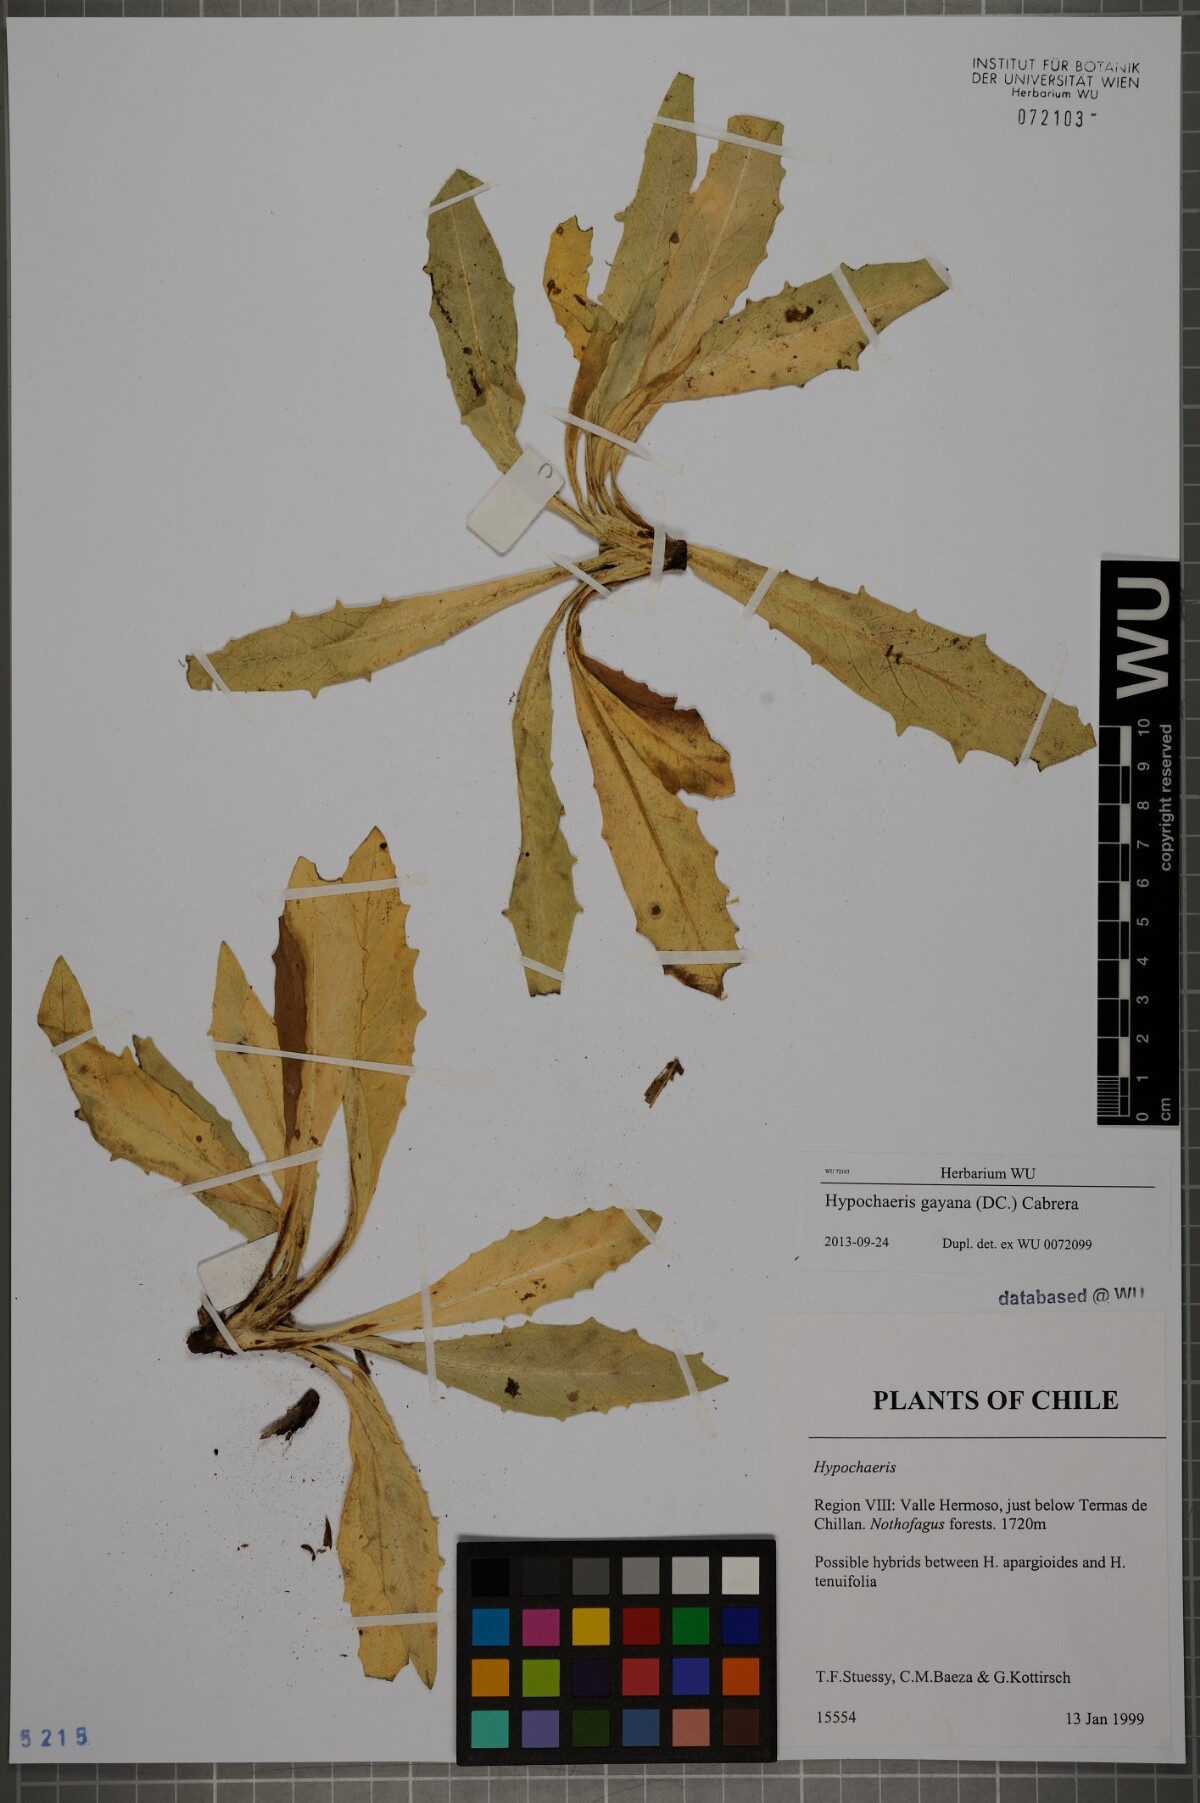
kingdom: Plantae
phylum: Tracheophyta
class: Magnoliopsida
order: Asterales
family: Asteraceae
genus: Hypochaeris
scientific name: Hypochaeris melanolepis
